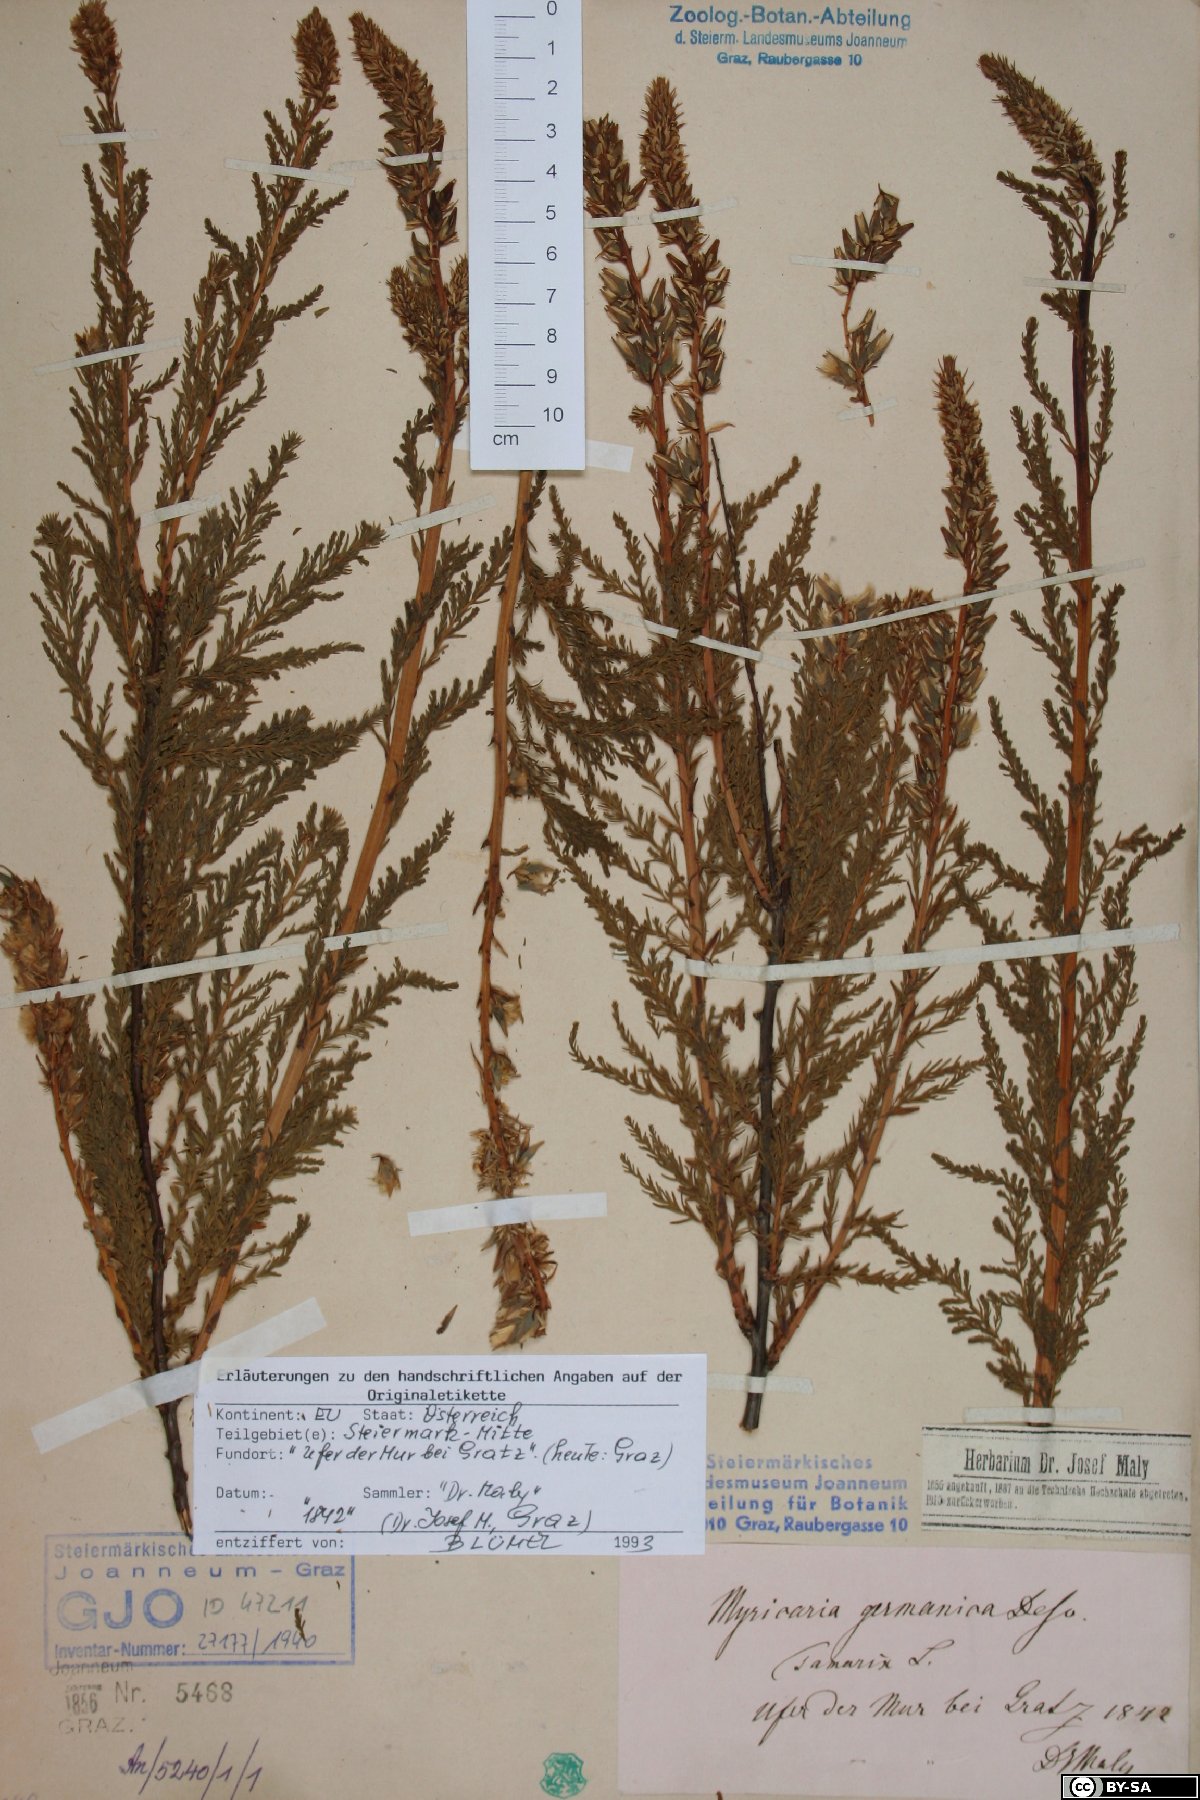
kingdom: Plantae
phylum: Tracheophyta
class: Magnoliopsida
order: Caryophyllales
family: Tamaricaceae
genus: Myricaria
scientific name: Myricaria germanica
